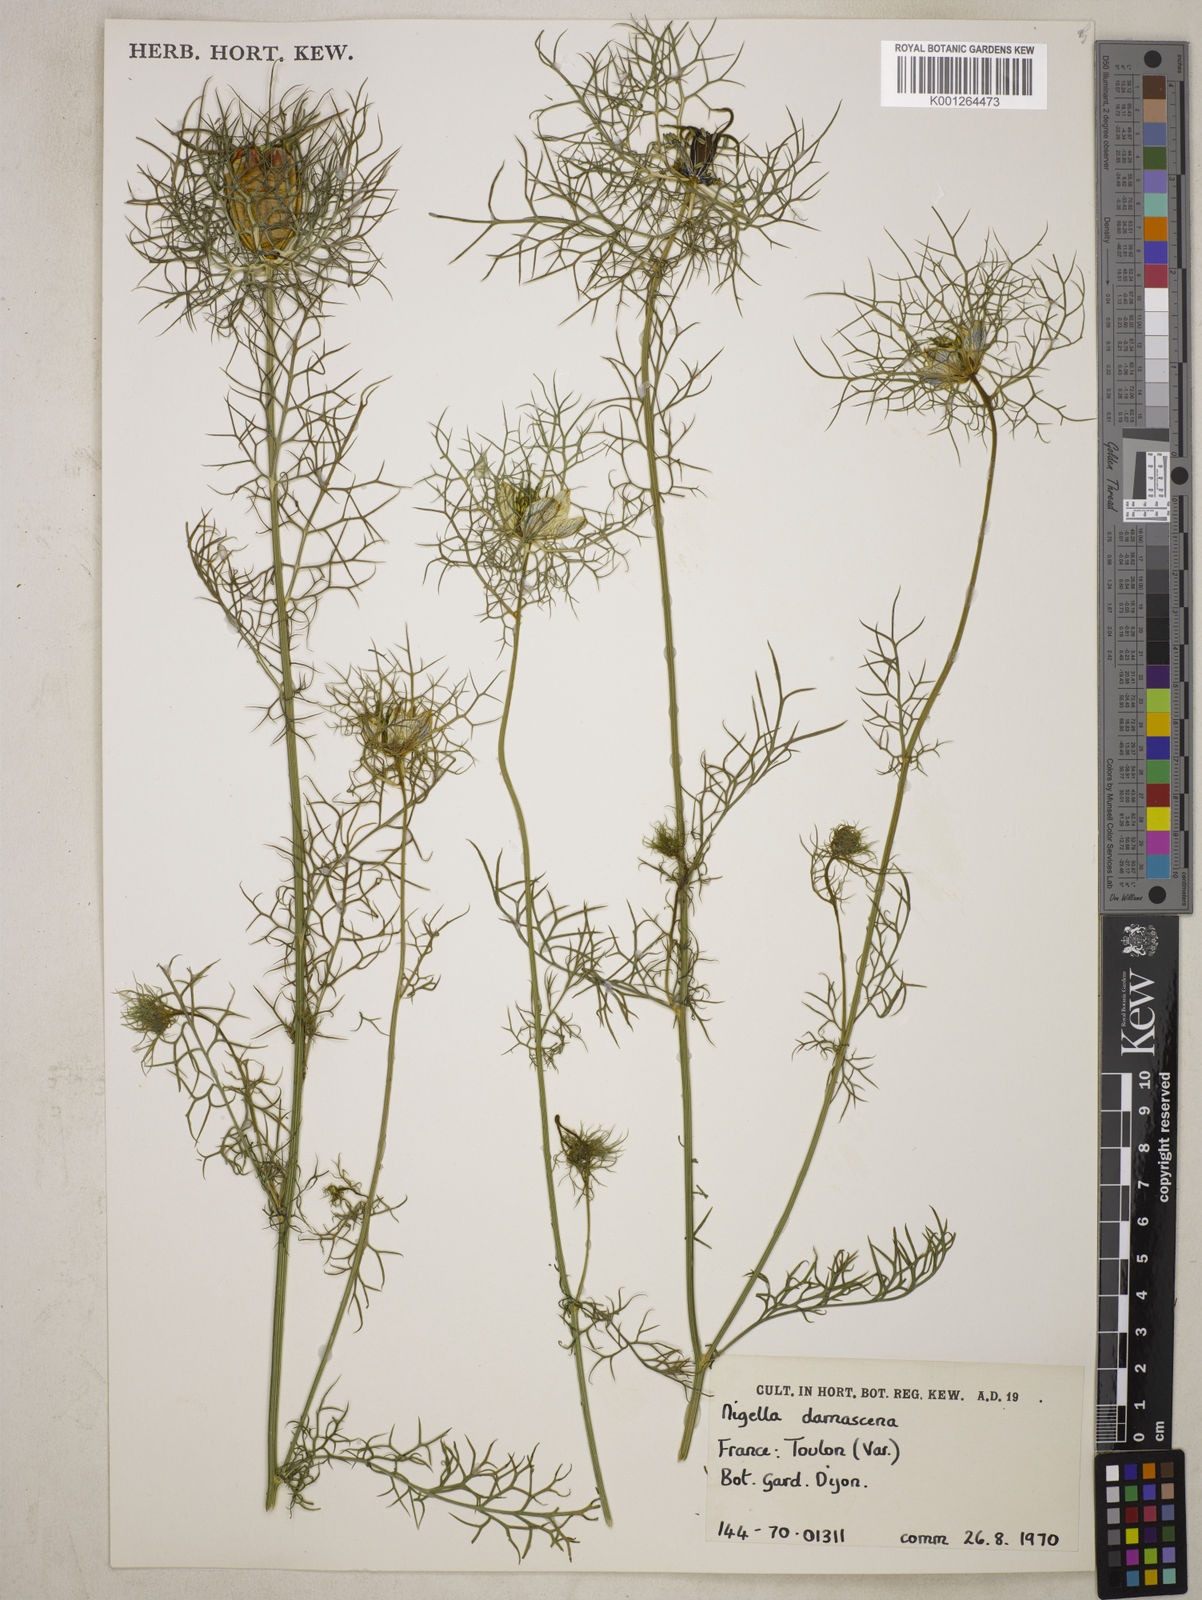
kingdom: Plantae
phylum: Tracheophyta
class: Magnoliopsida
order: Ranunculales
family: Ranunculaceae
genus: Nigella
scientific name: Nigella damascena
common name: Love-in-a-mist
